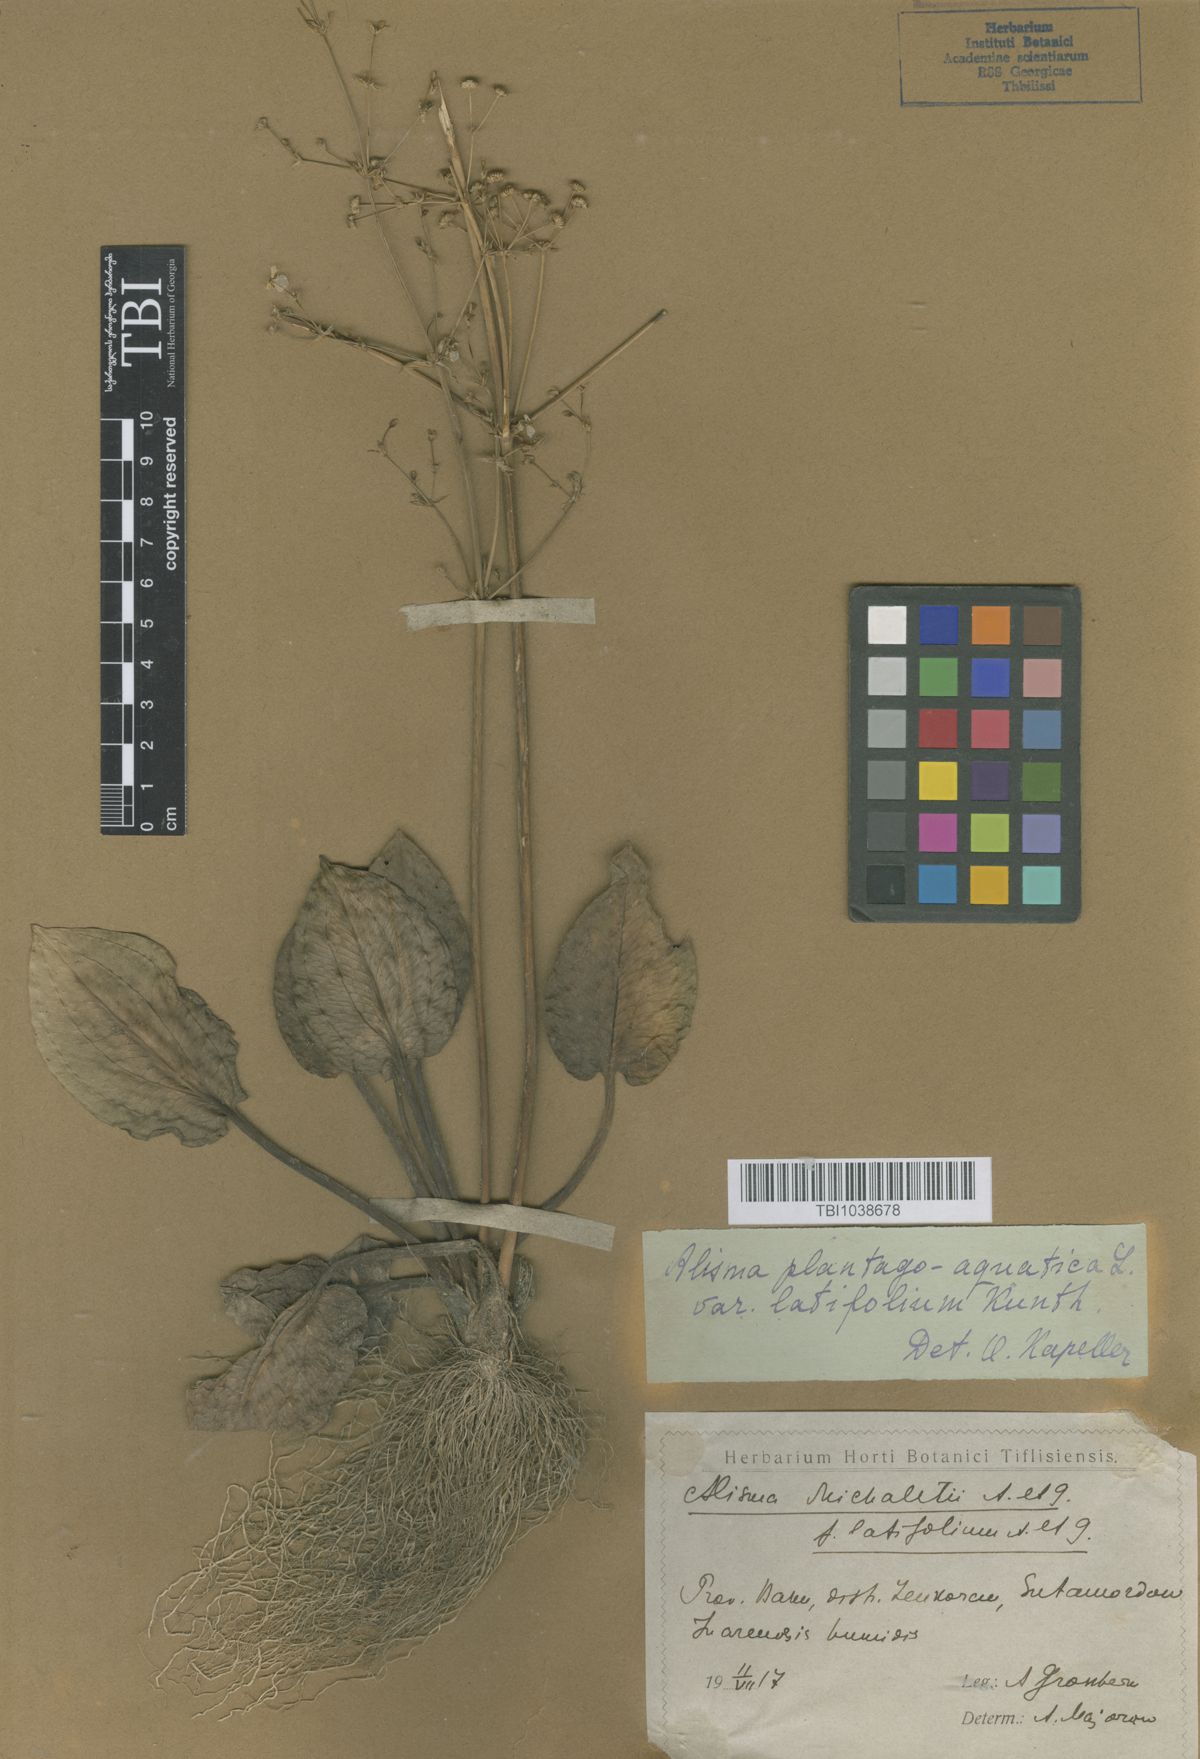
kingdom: Plantae
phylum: Tracheophyta
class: Liliopsida
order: Alismatales
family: Alismataceae
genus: Alisma
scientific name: Alisma plantago-aquatica
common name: Water-plantain
